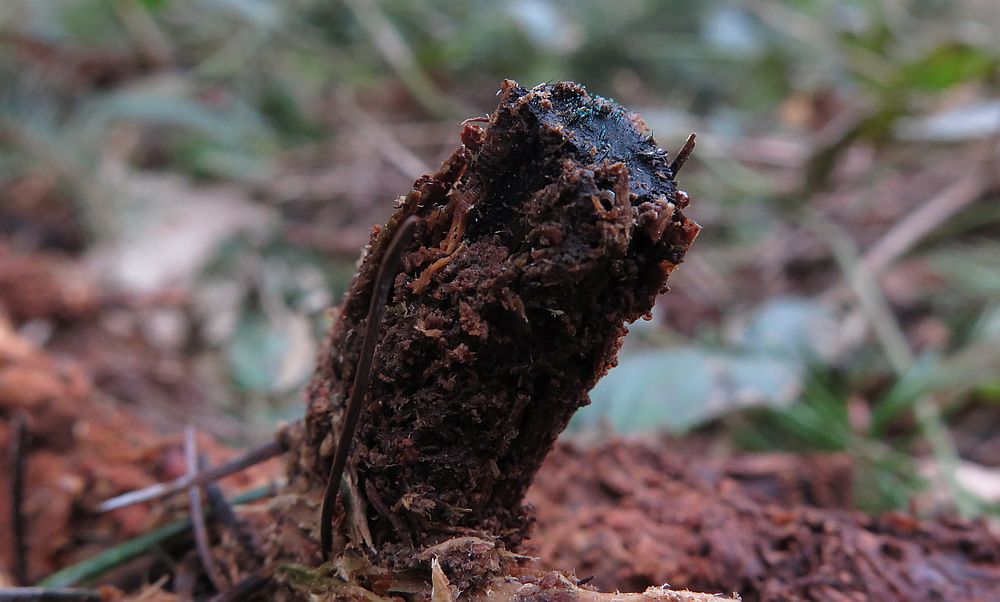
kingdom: Fungi
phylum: Ascomycota
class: Leotiomycetes
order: Leotiales
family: Tympanidaceae
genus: Dendrostilbella
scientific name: Dendrostilbella smaragdina
